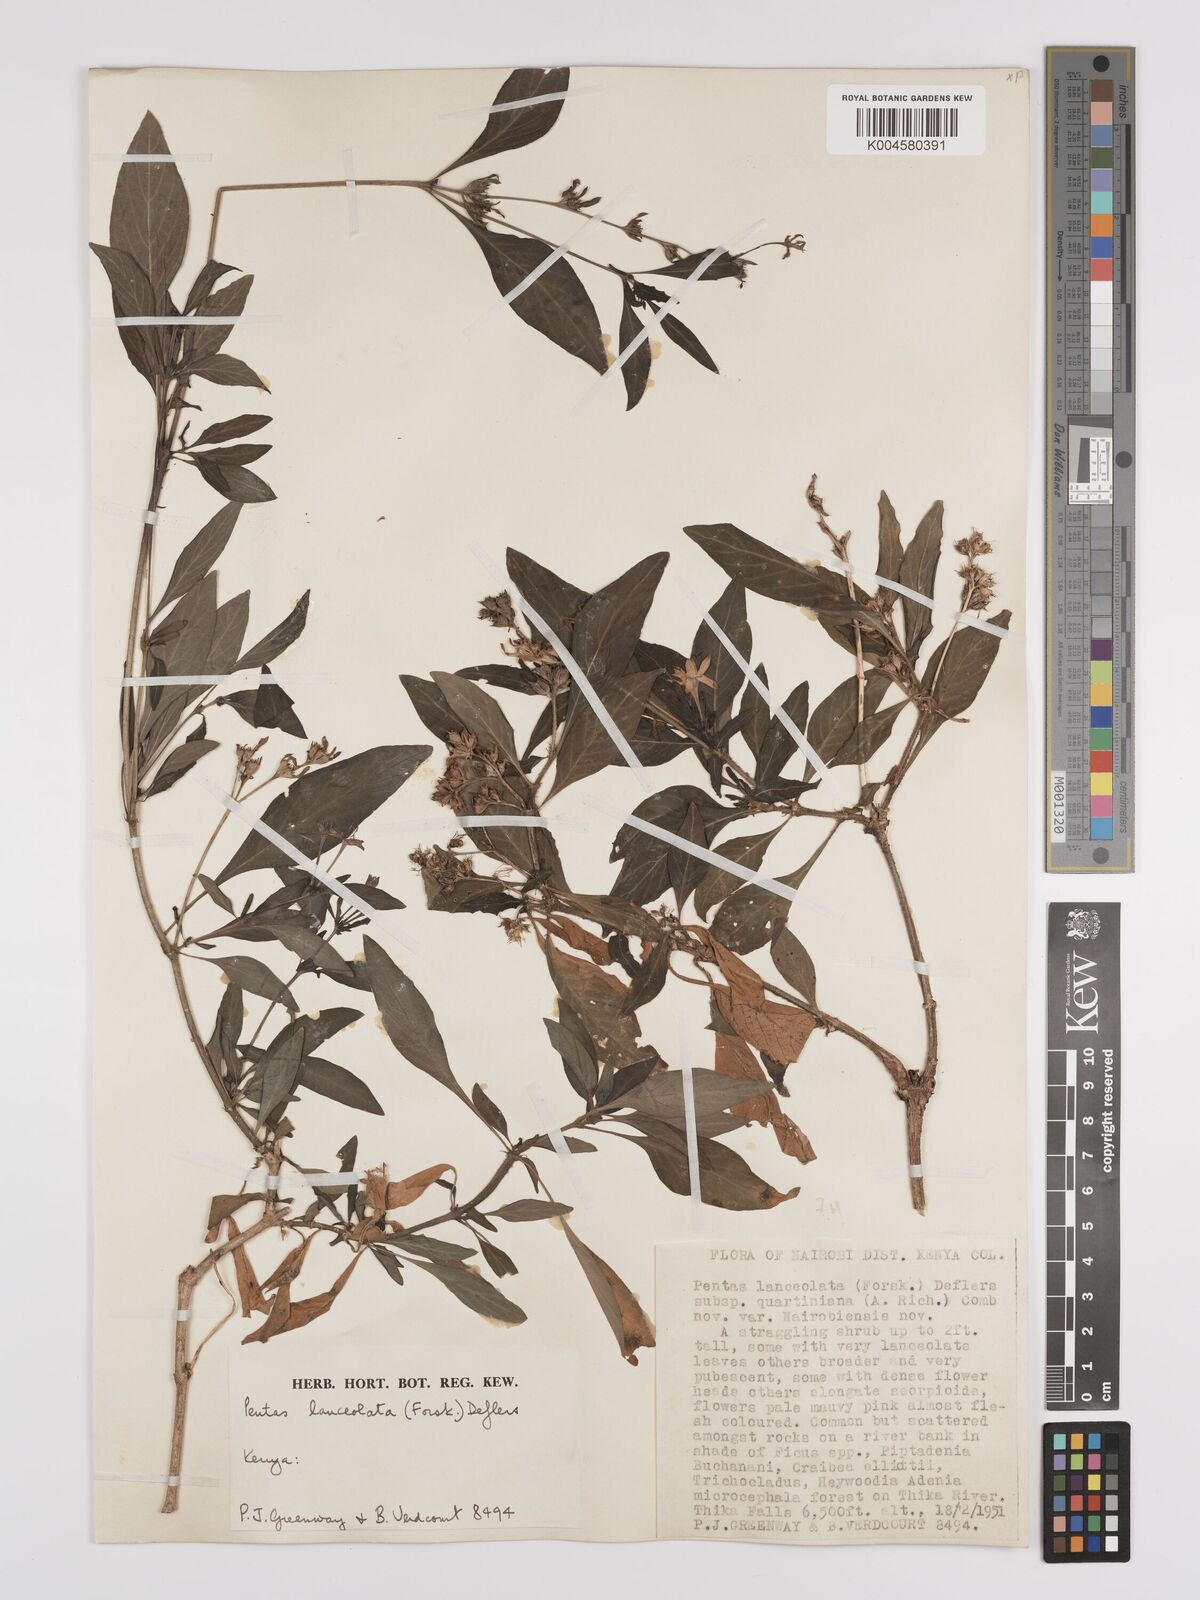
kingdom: Plantae
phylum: Tracheophyta
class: Magnoliopsida
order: Gentianales
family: Rubiaceae
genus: Pentas
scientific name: Pentas
